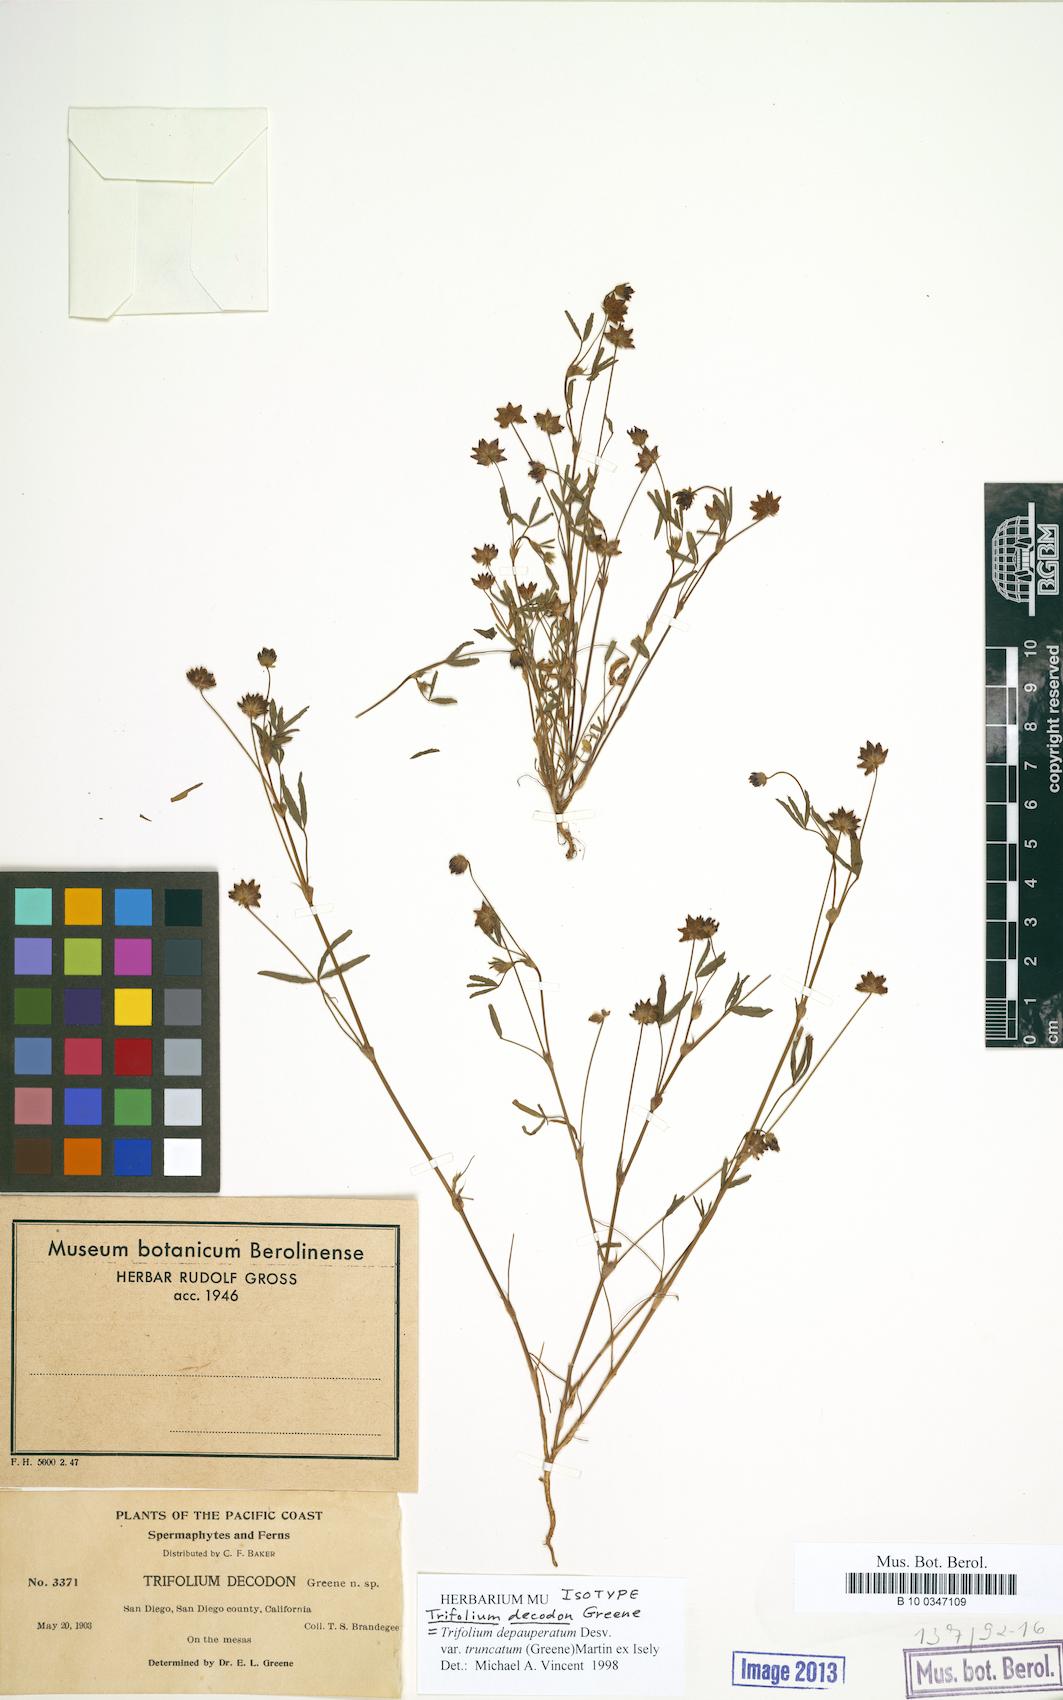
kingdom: Plantae
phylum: Tracheophyta
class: Magnoliopsida
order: Fabales
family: Fabaceae
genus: Trifolium
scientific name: Trifolium depauperatum
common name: Poverty clover
